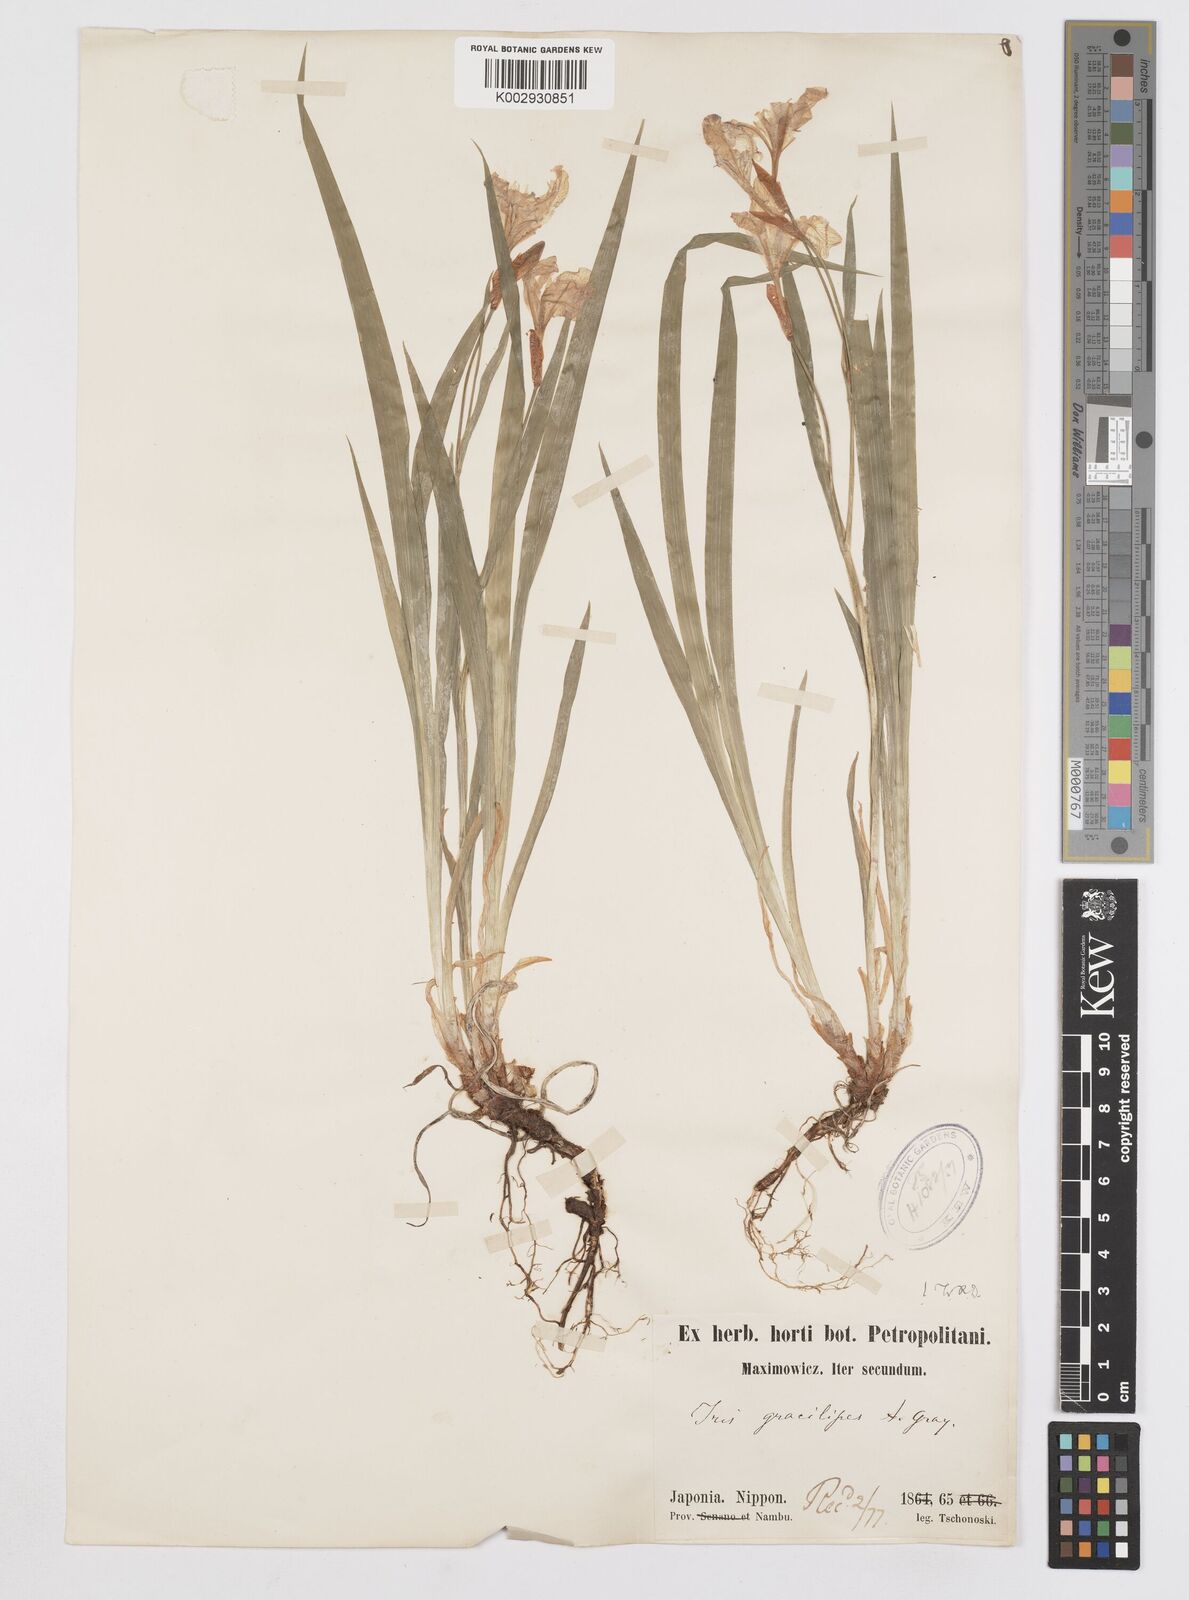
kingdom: Plantae
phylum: Tracheophyta
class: Liliopsida
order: Asparagales
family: Iridaceae
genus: Iris
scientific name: Iris gracilipes
